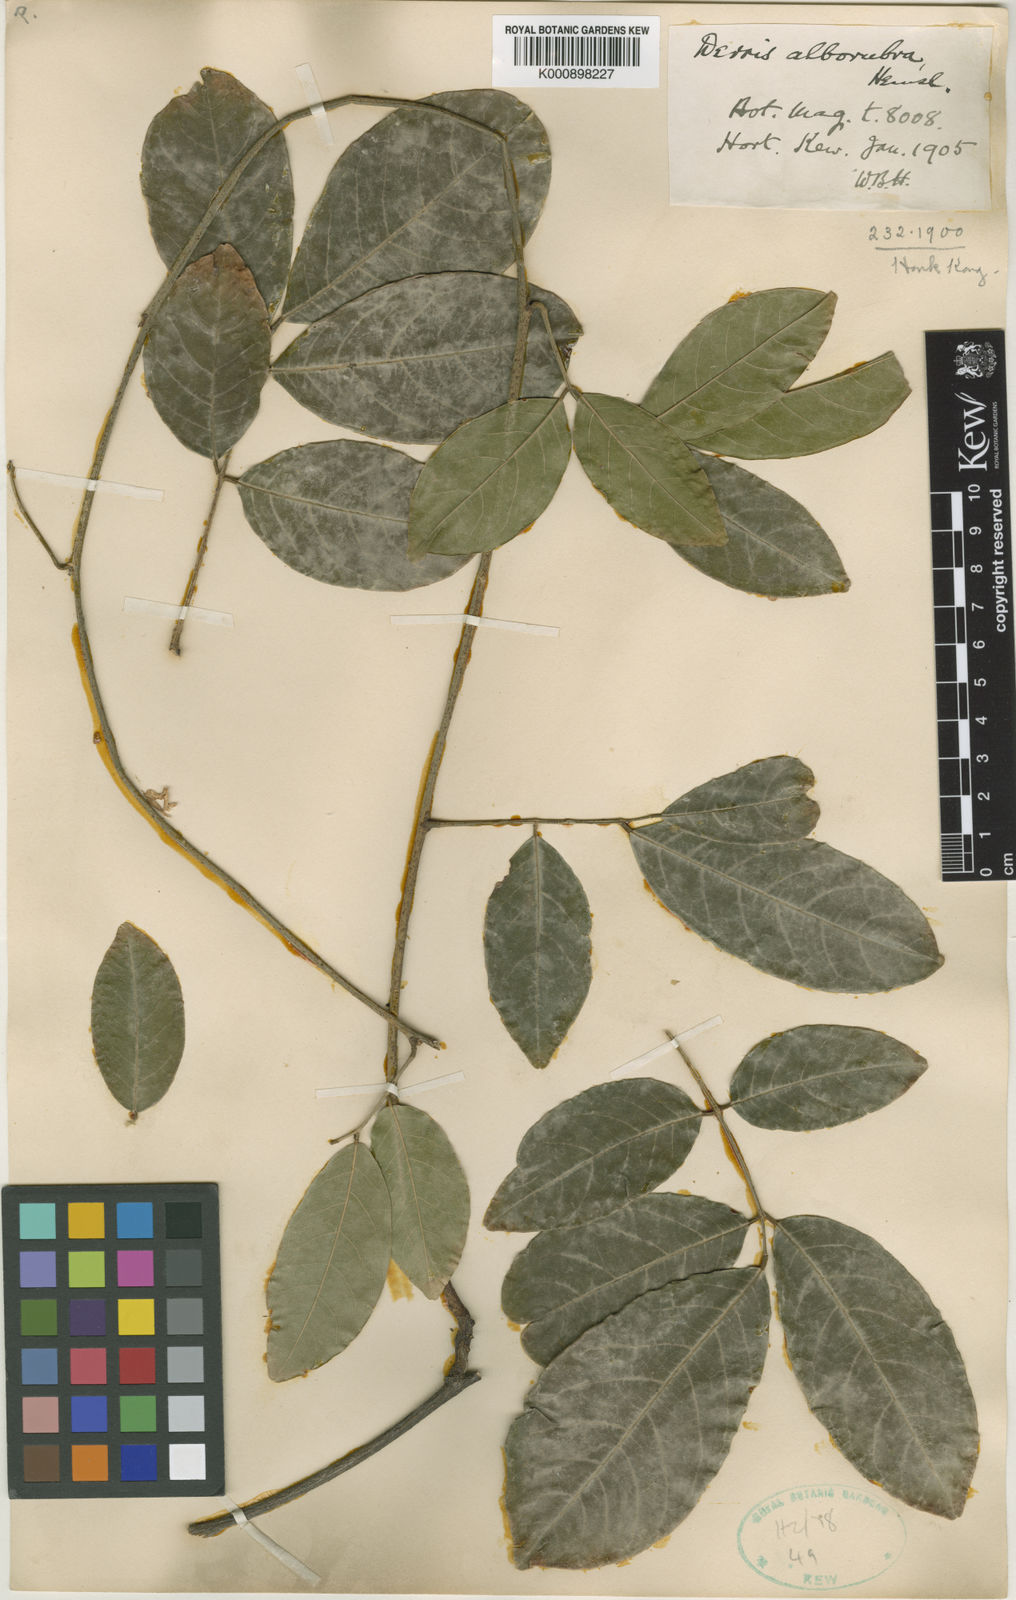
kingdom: Plantae
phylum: Tracheophyta
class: Magnoliopsida
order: Fabales
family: Fabaceae
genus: Derris
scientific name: Derris alborubra
